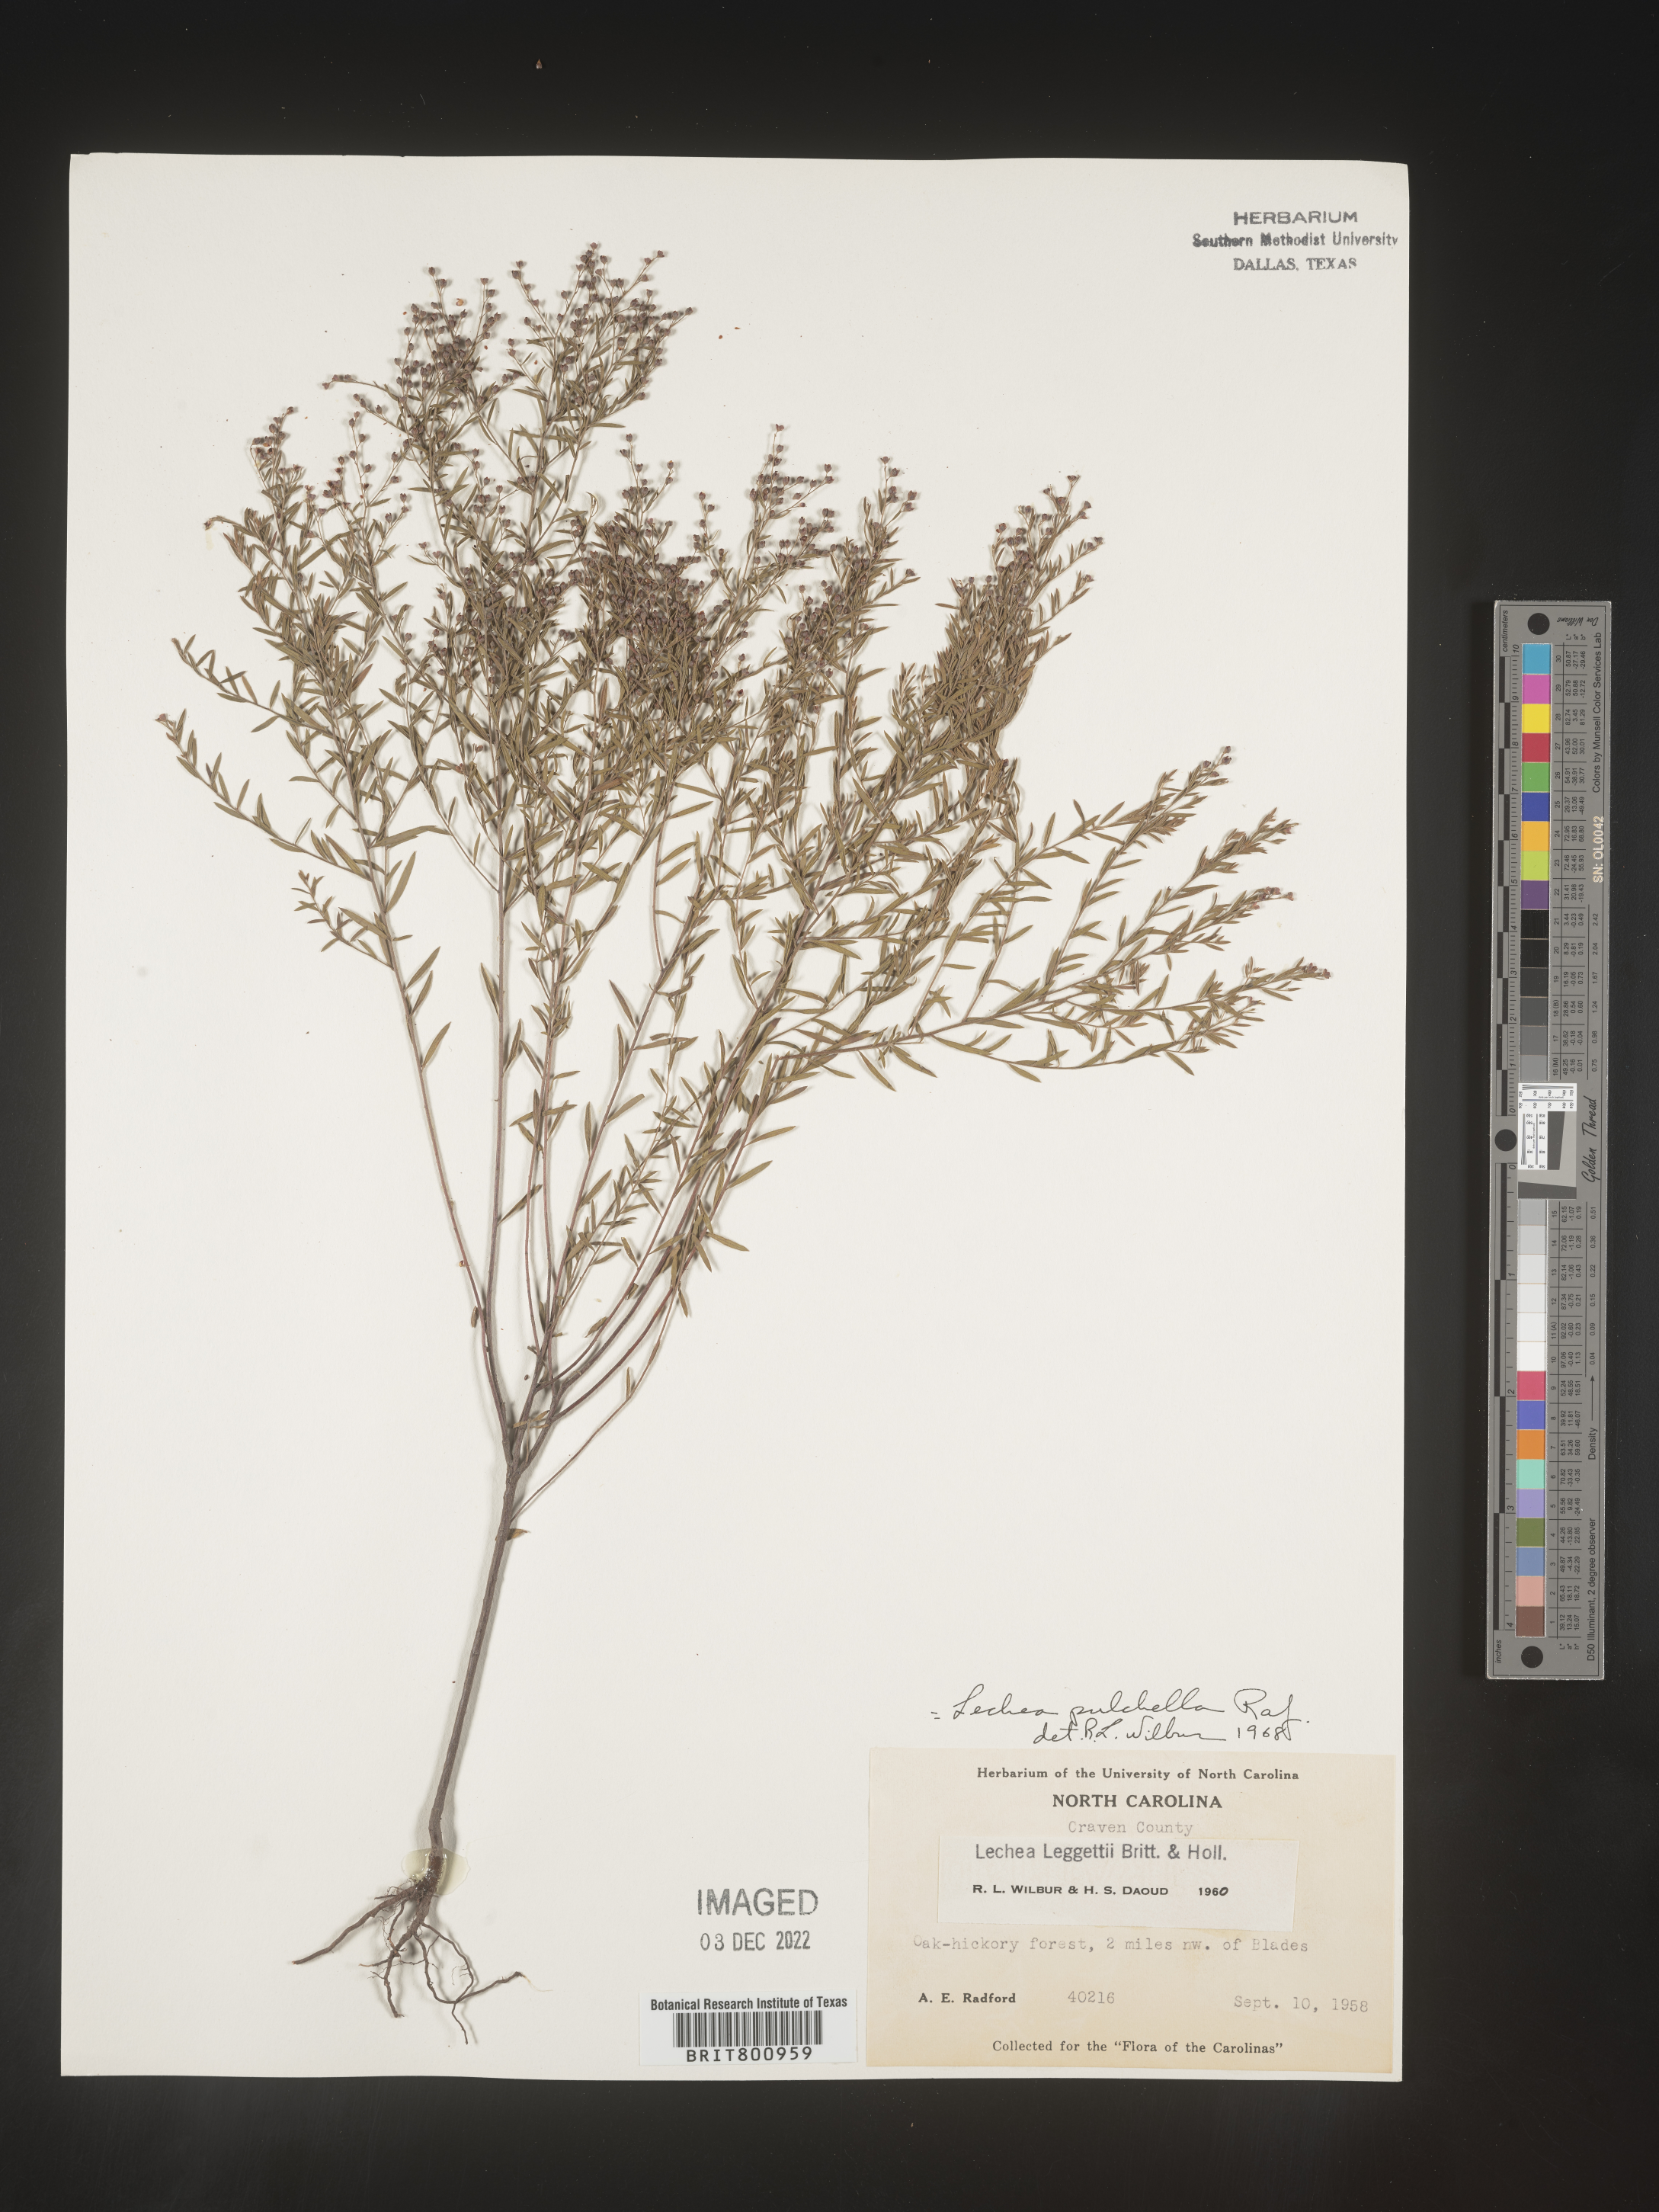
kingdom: Plantae
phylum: Tracheophyta
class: Magnoliopsida
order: Malvales
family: Cistaceae
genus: Lechea
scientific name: Lechea pulchella
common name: Leggett's pinweed
